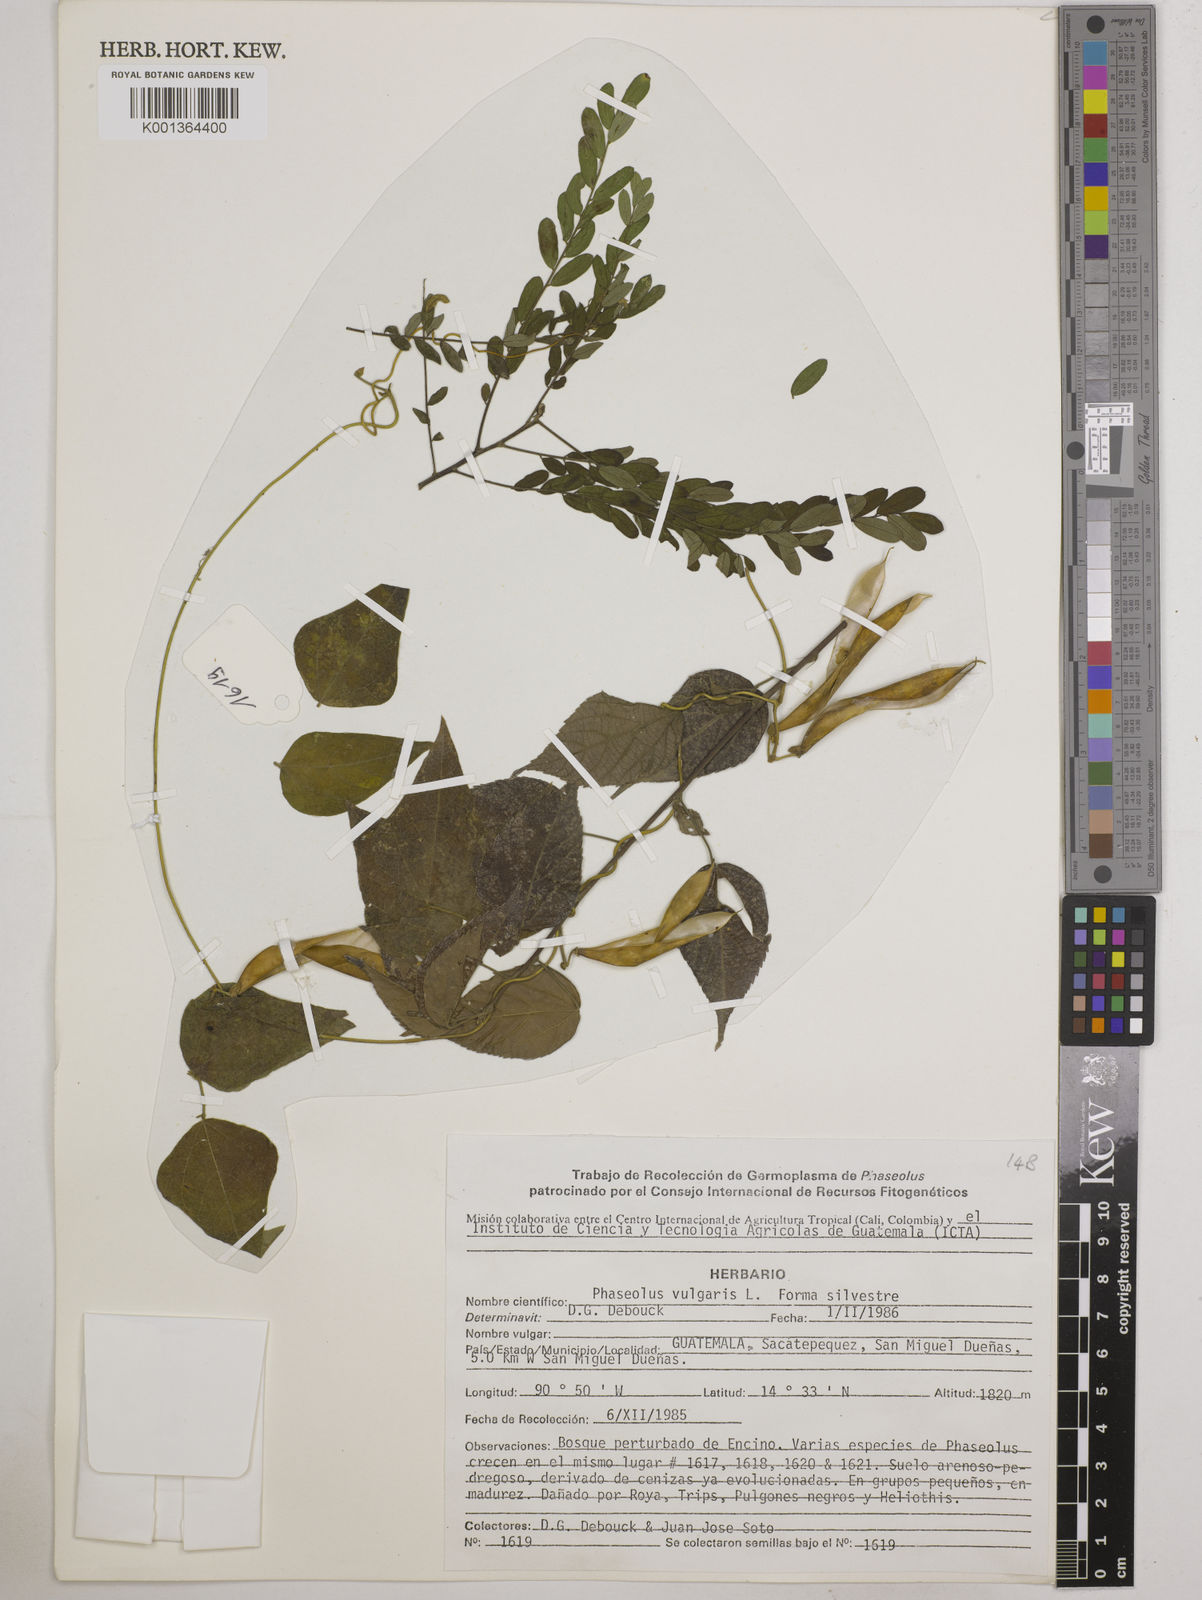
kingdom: Plantae
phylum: Tracheophyta
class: Magnoliopsida
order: Fabales
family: Fabaceae
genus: Phaseolus
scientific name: Phaseolus vulgaris
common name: Bean
